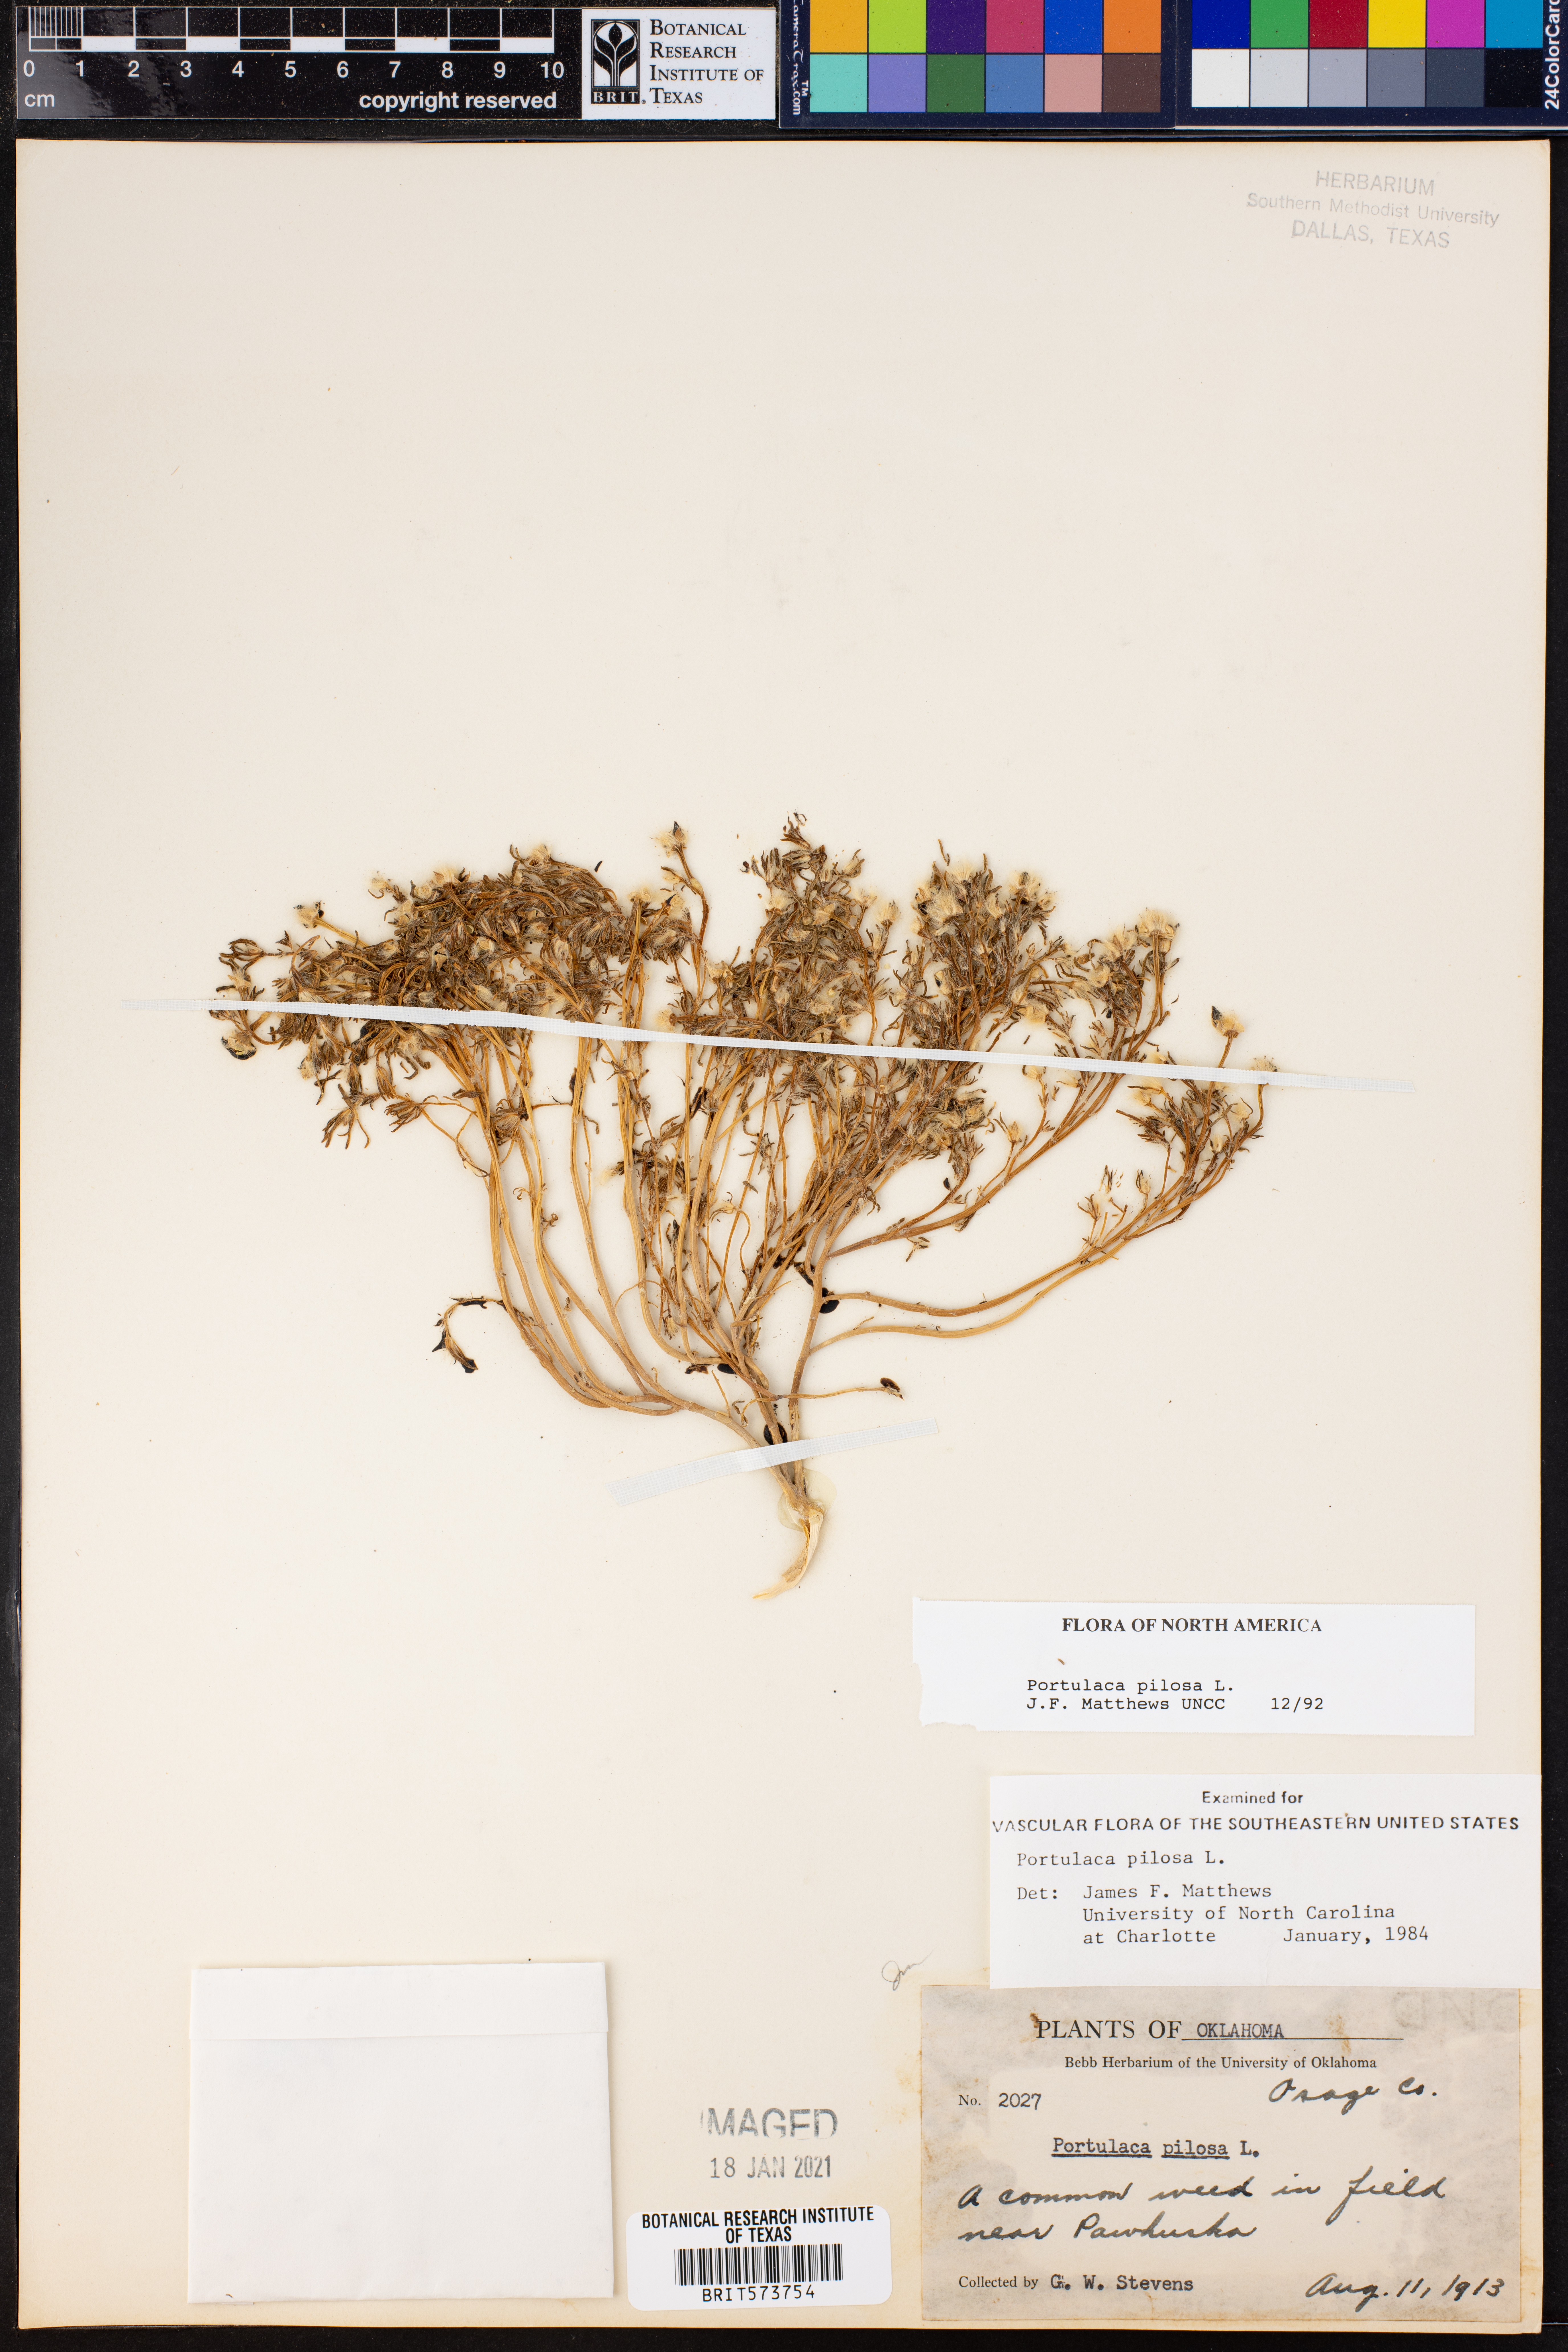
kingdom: Plantae
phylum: Tracheophyta
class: Magnoliopsida
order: Caryophyllales
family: Portulacaceae
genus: Portulaca
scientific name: Portulaca pilosa
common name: Kiss me quick
